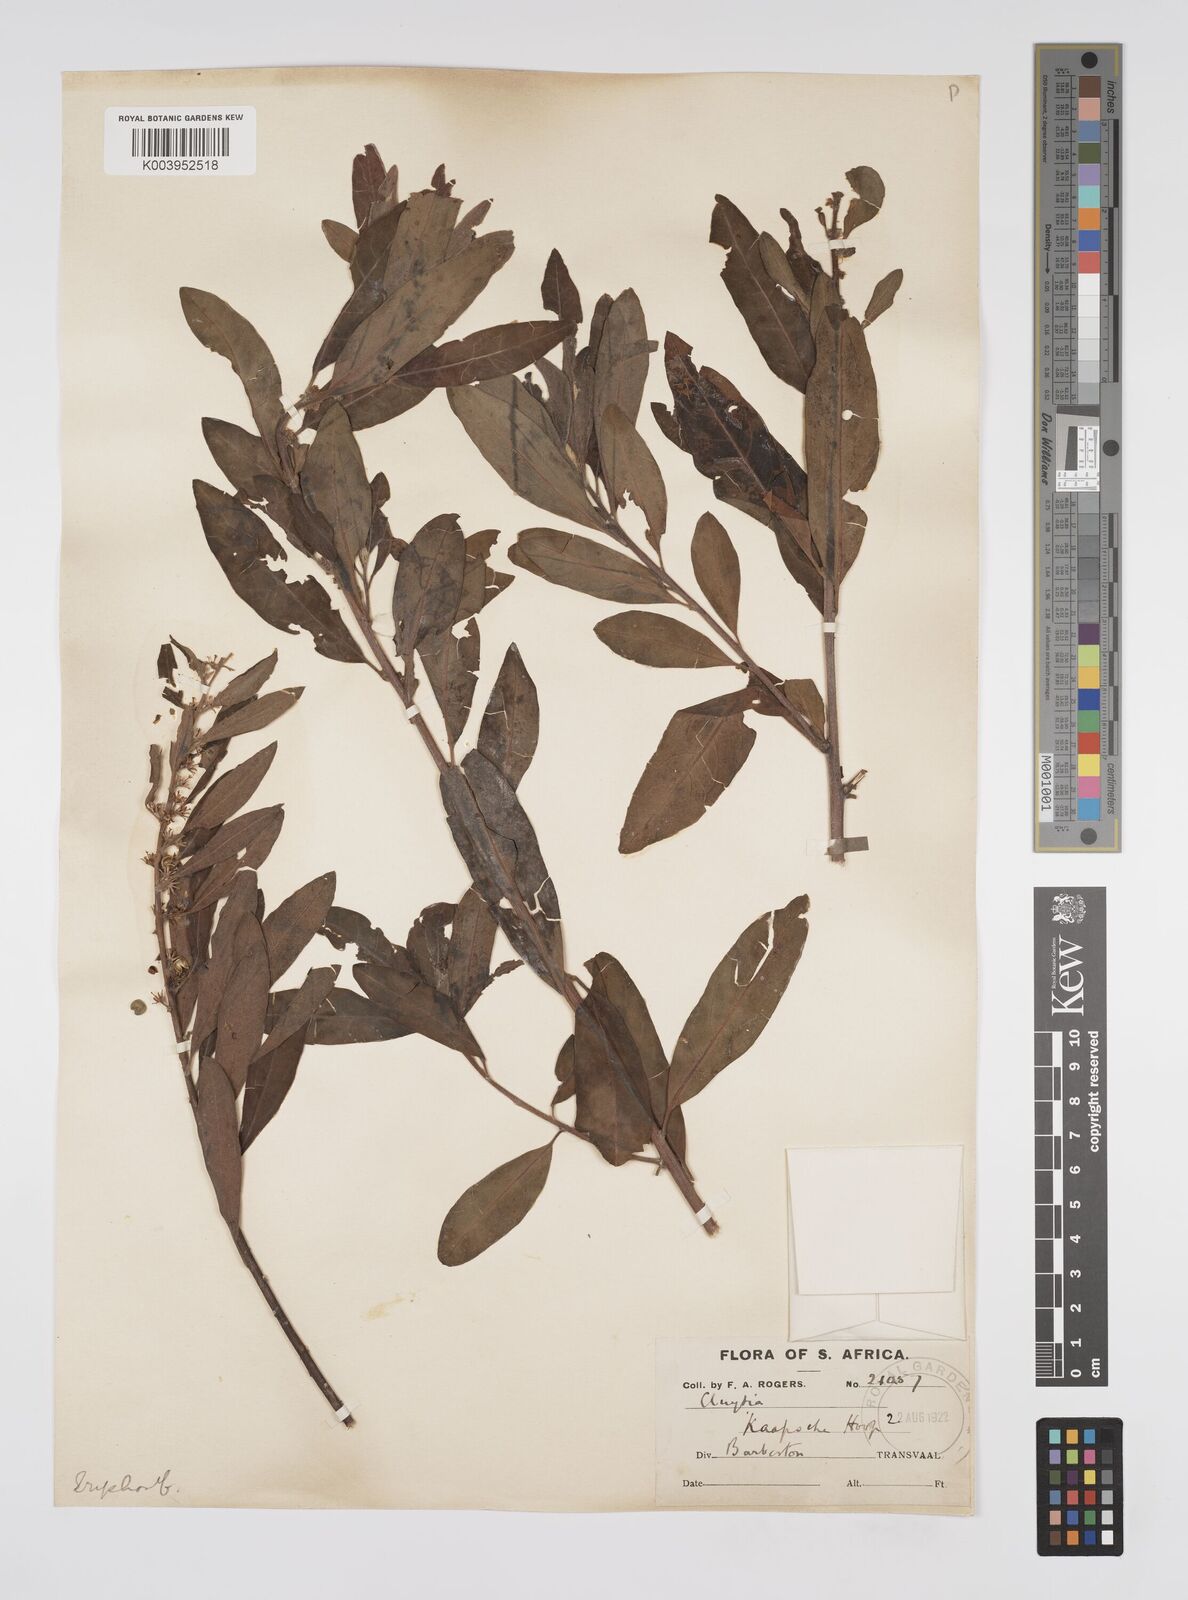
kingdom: Plantae
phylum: Tracheophyta
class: Magnoliopsida
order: Malpighiales
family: Peraceae
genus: Clutia
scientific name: Clutia
